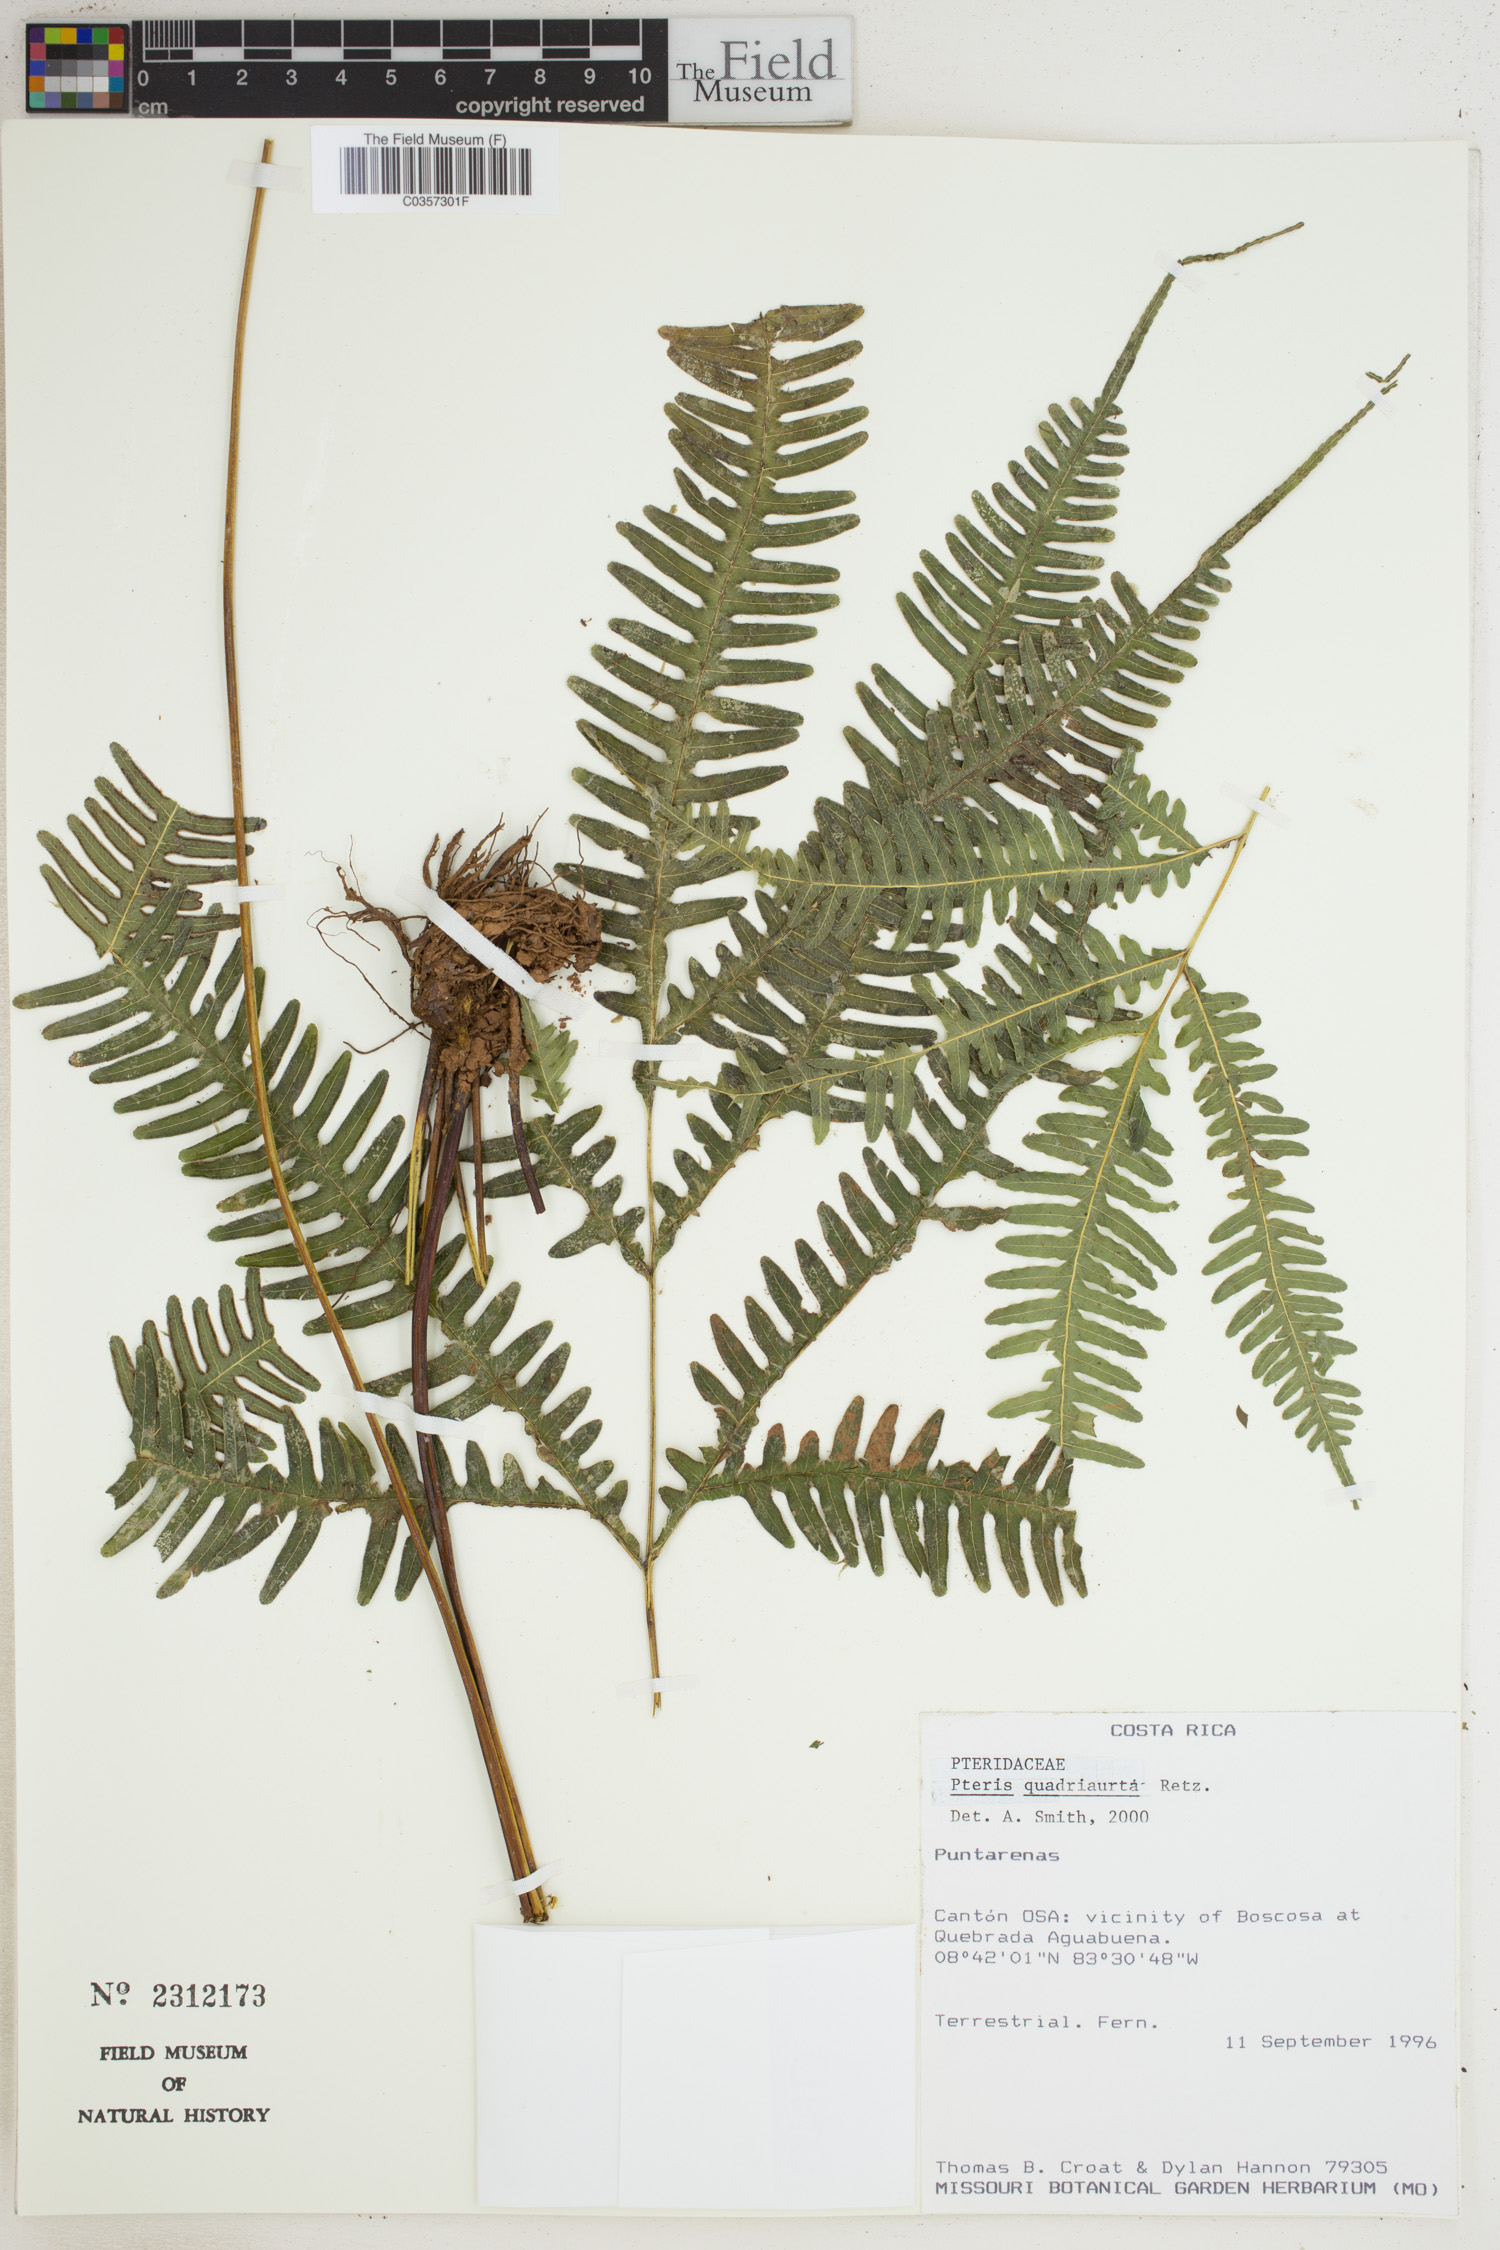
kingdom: Plantae
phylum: Tracheophyta
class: Polypodiopsida
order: Polypodiales
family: Pteridaceae
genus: Pteris
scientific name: Pteris quadriaurita
